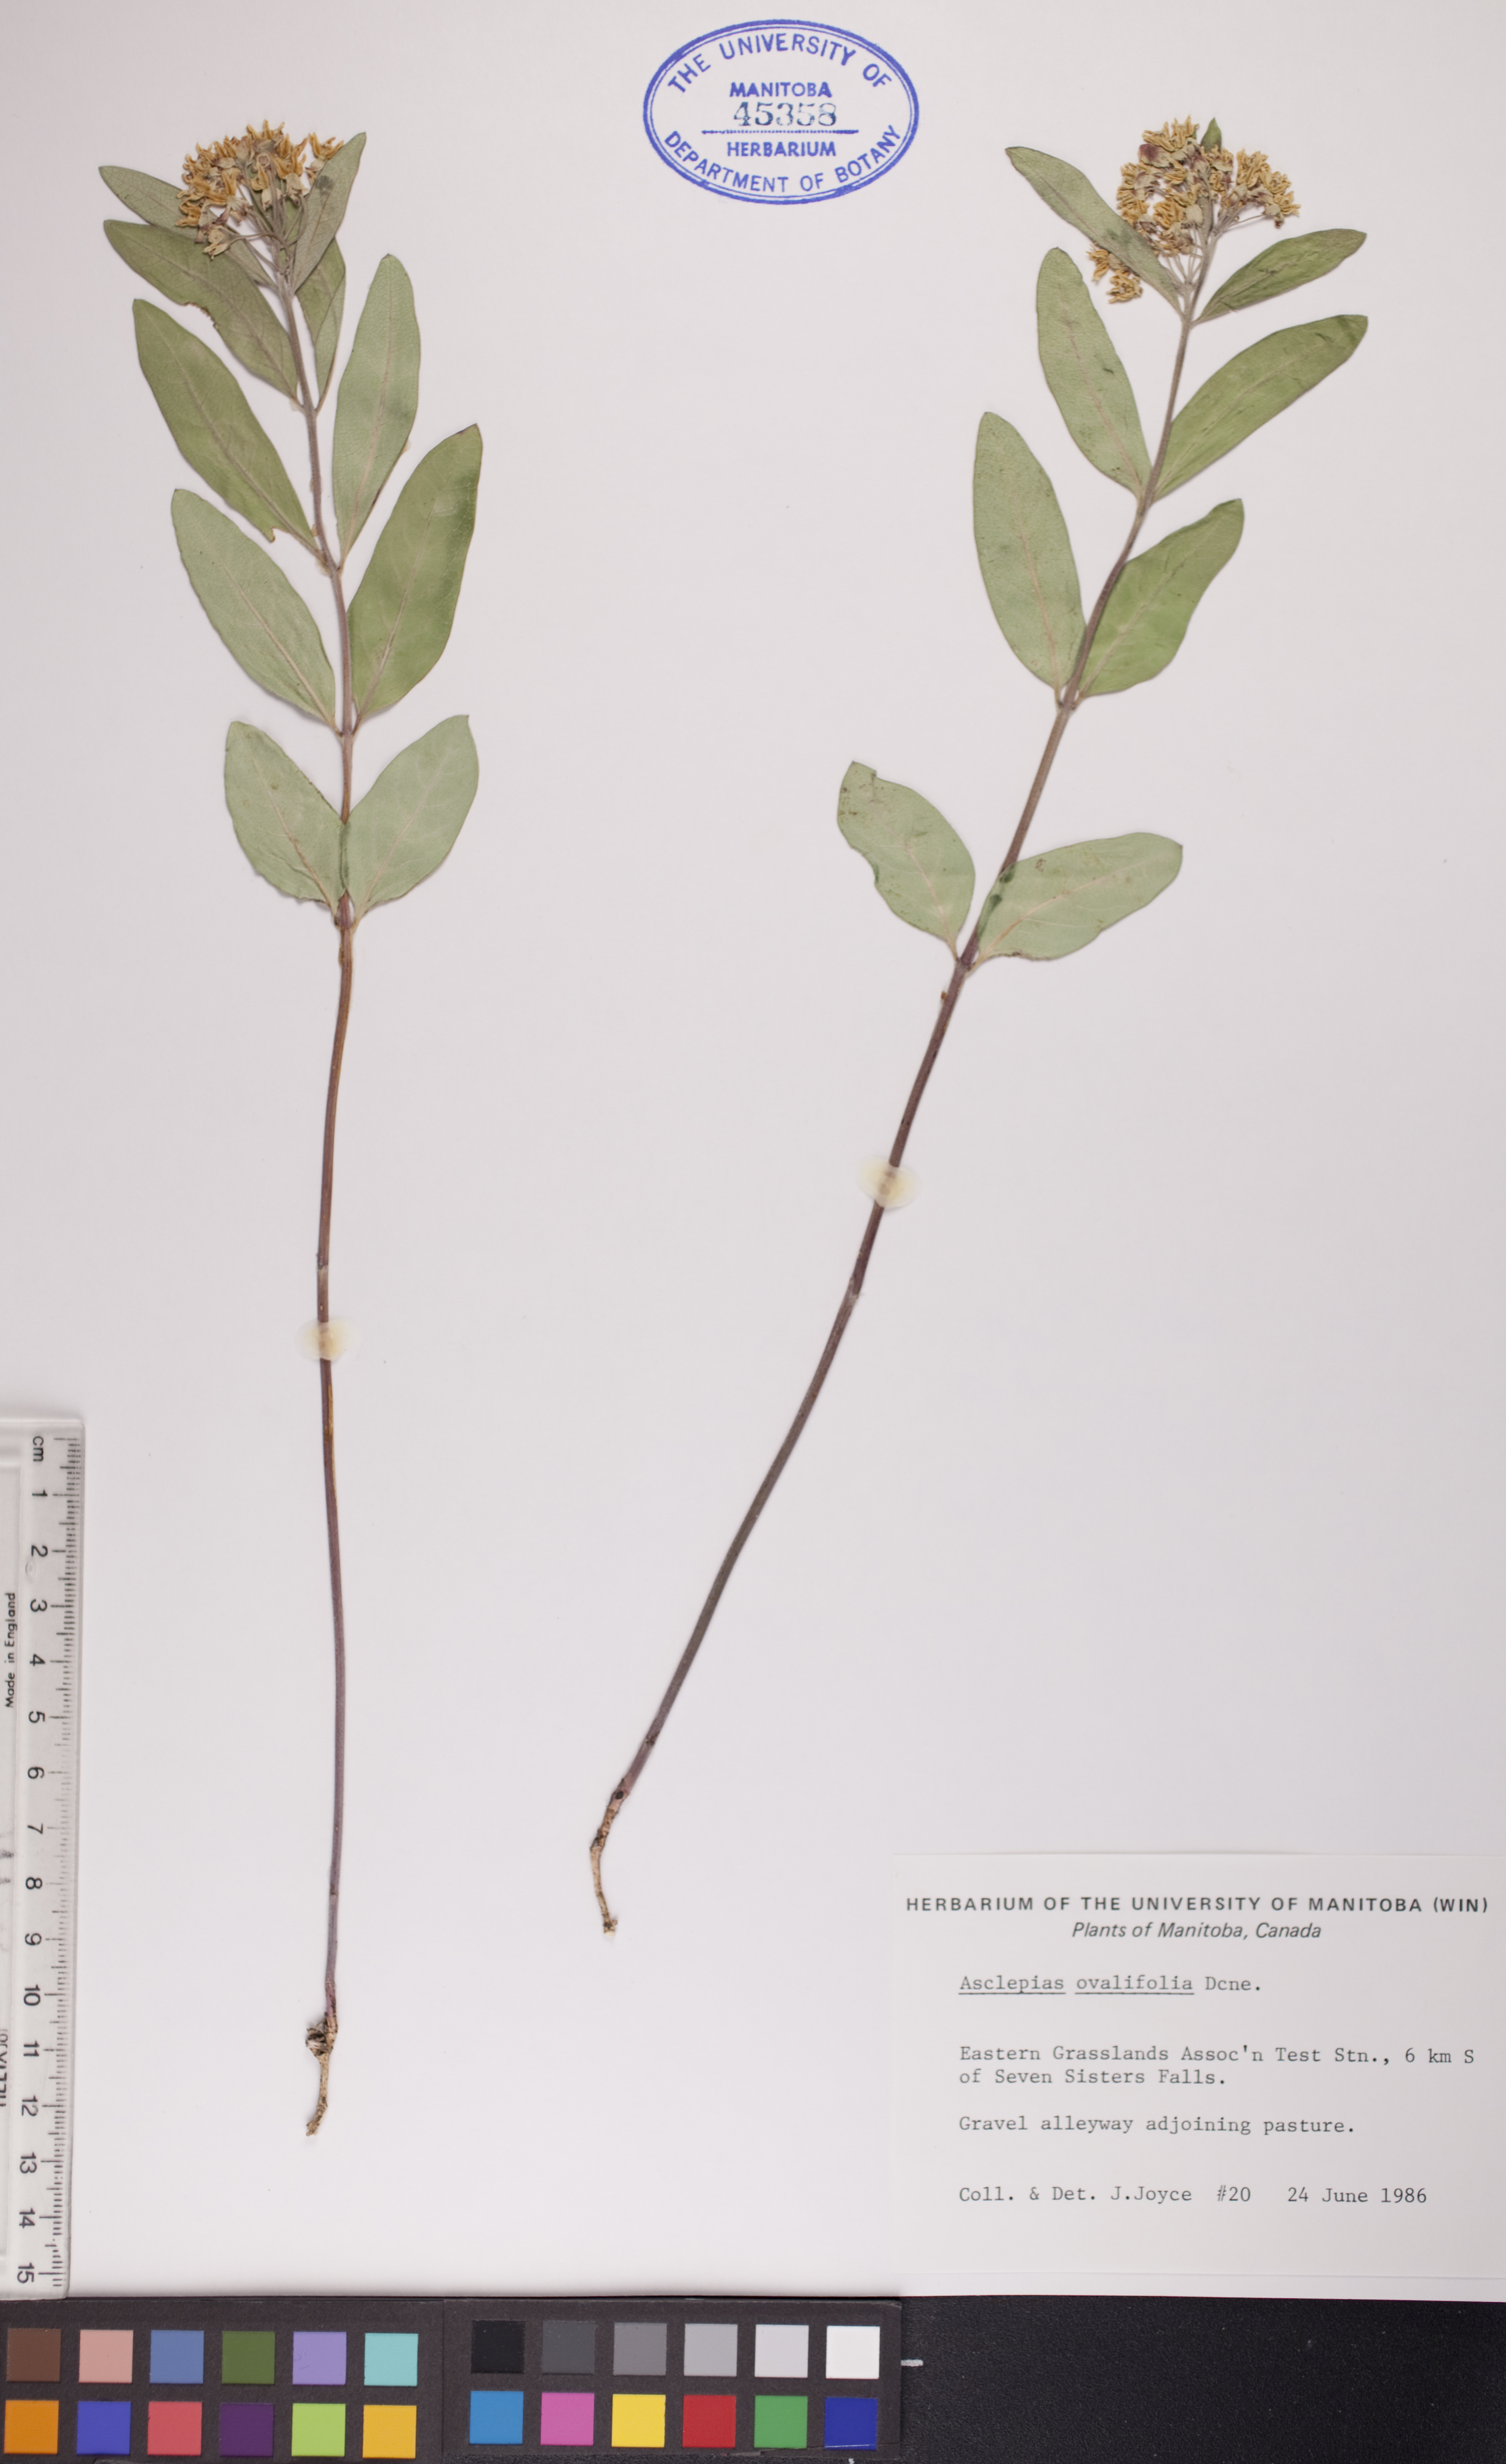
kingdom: Plantae
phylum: Tracheophyta
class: Magnoliopsida
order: Gentianales
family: Apocynaceae
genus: Asclepias
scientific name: Asclepias ovalifolia
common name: Dwarf milkweed
